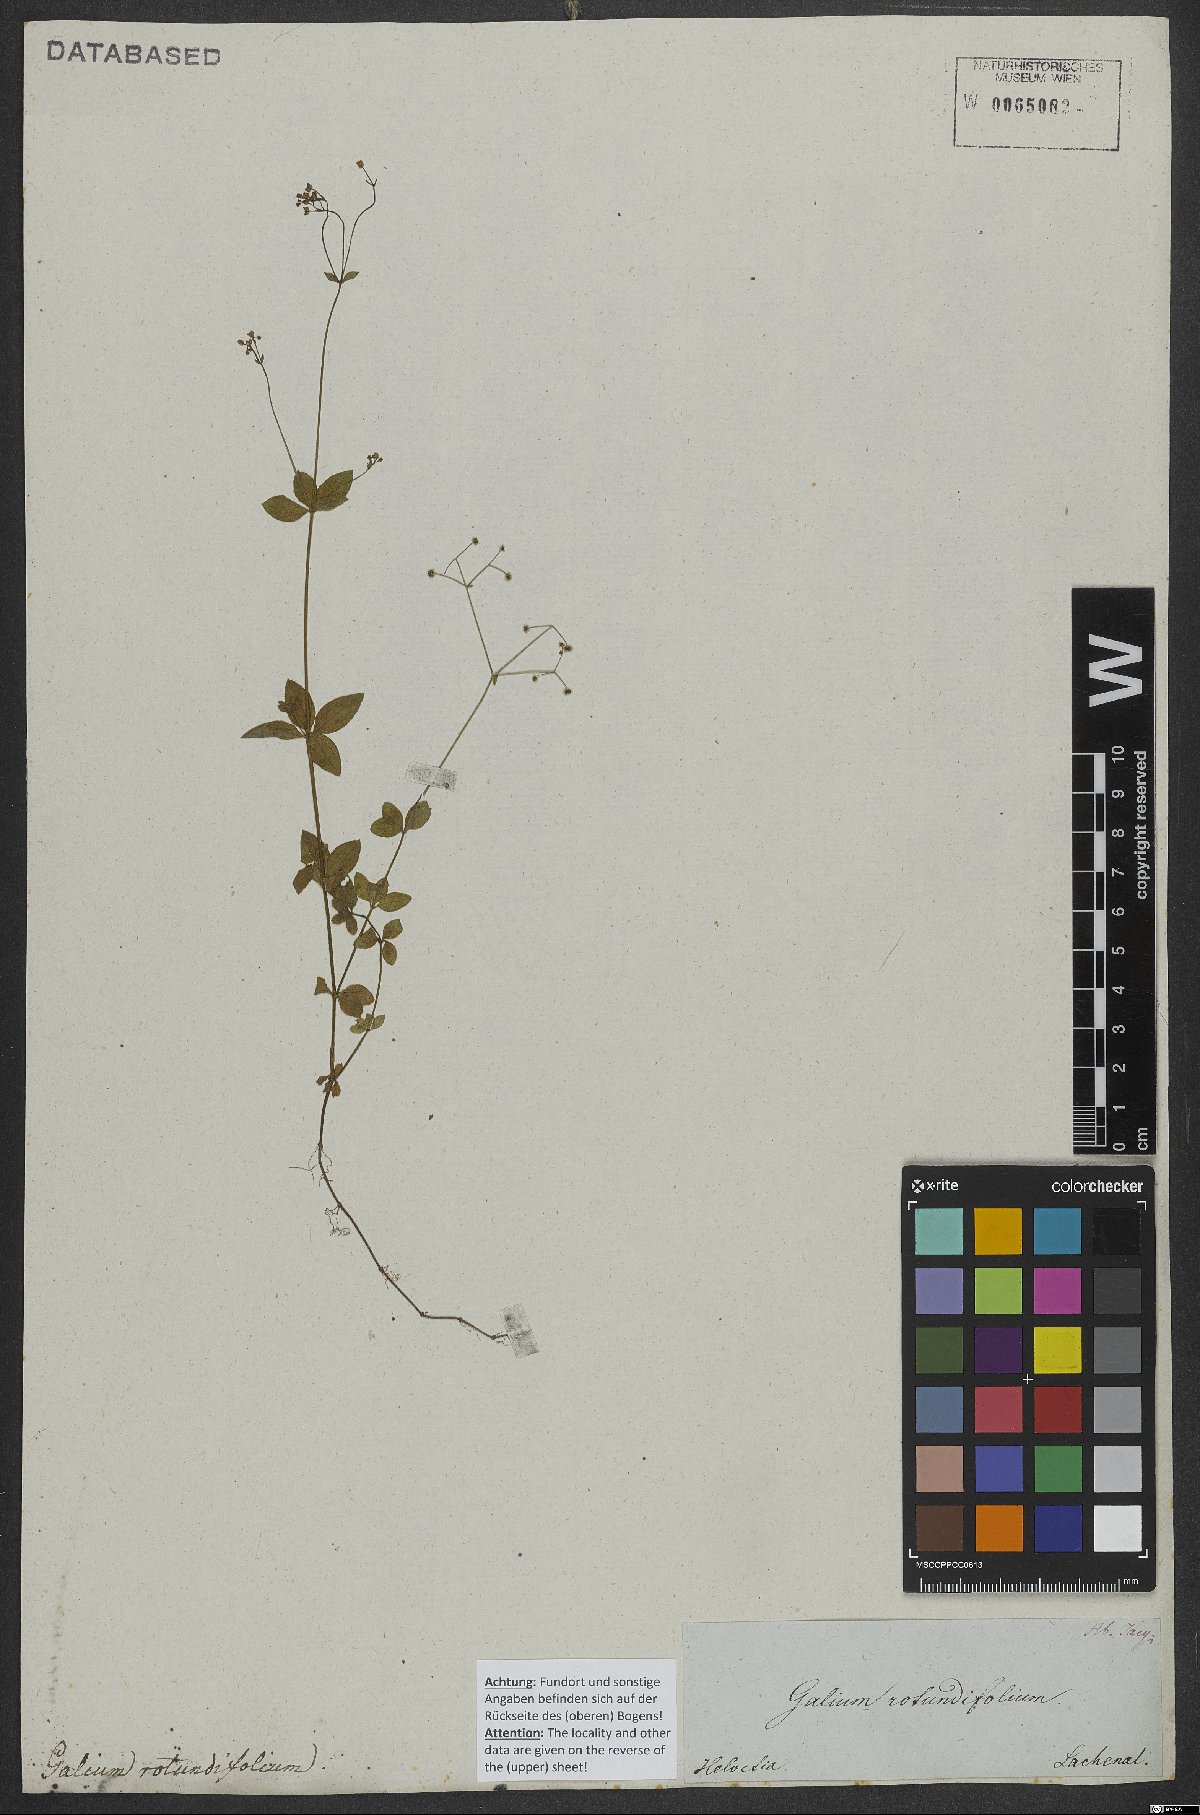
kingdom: Plantae
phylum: Tracheophyta
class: Magnoliopsida
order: Gentianales
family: Rubiaceae
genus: Galium
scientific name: Galium rotundifolium
